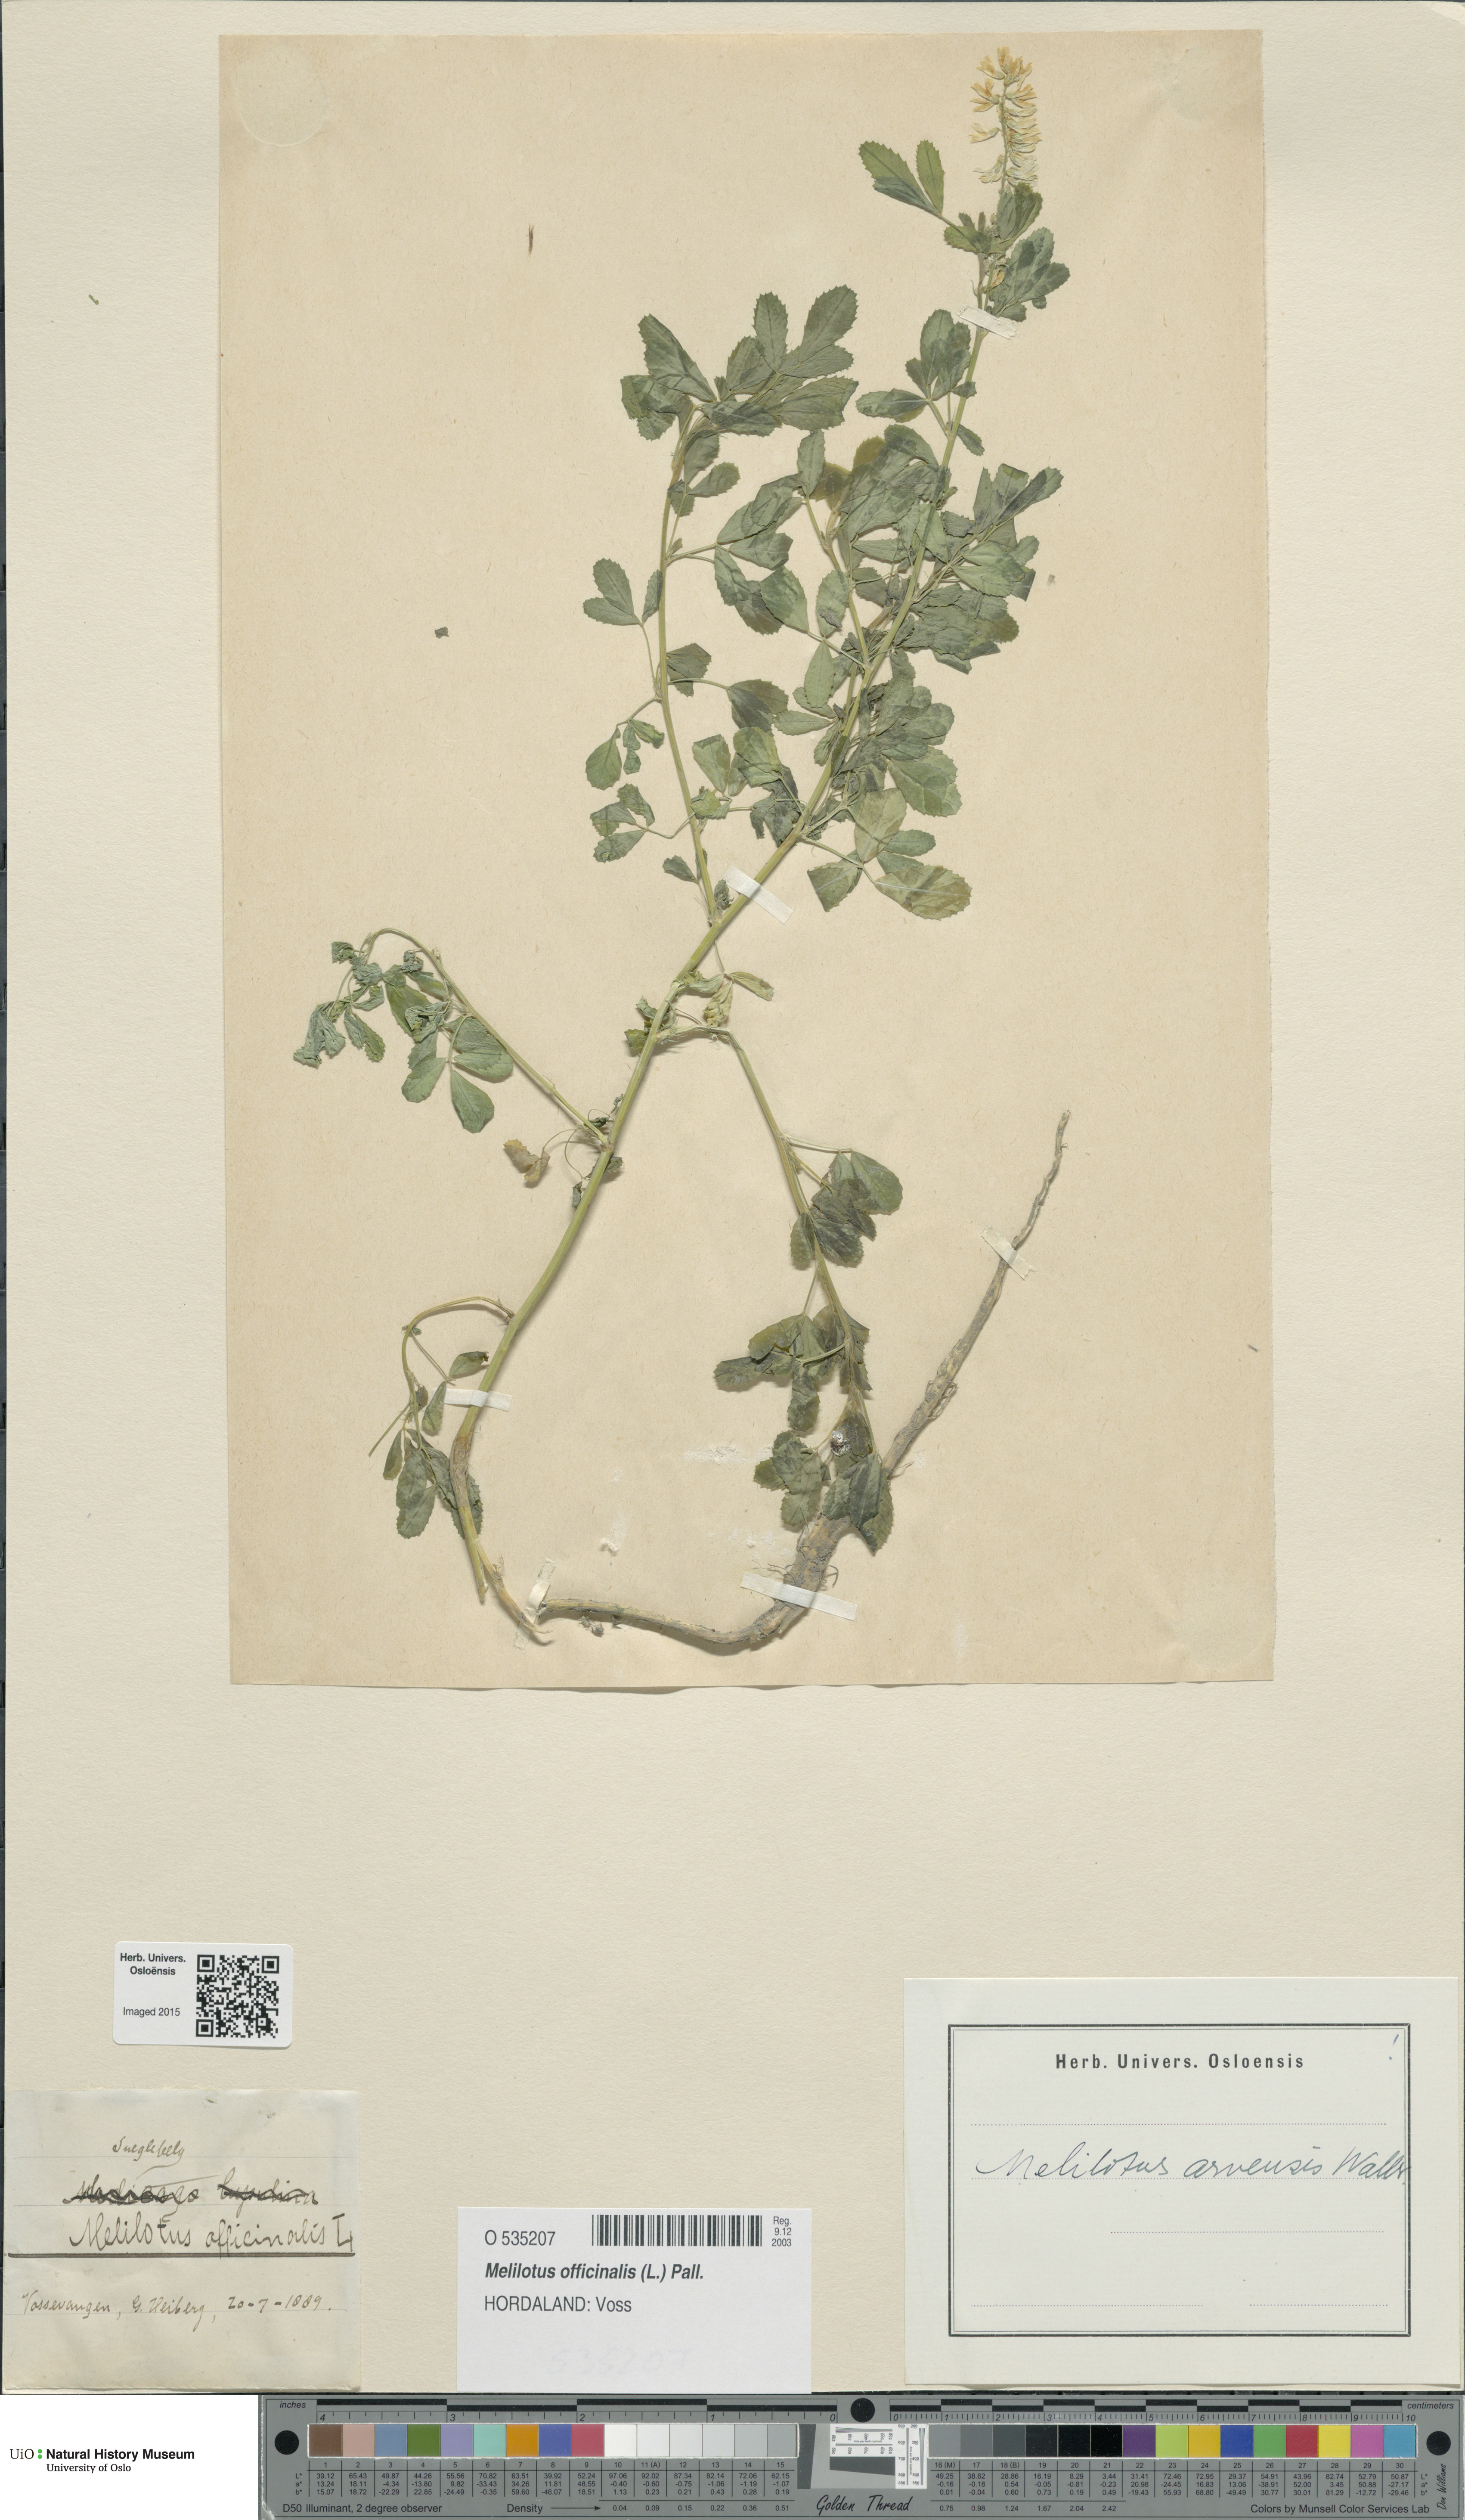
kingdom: Plantae
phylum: Tracheophyta
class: Magnoliopsida
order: Fabales
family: Fabaceae
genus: Melilotus
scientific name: Melilotus officinalis
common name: Sweetclover
